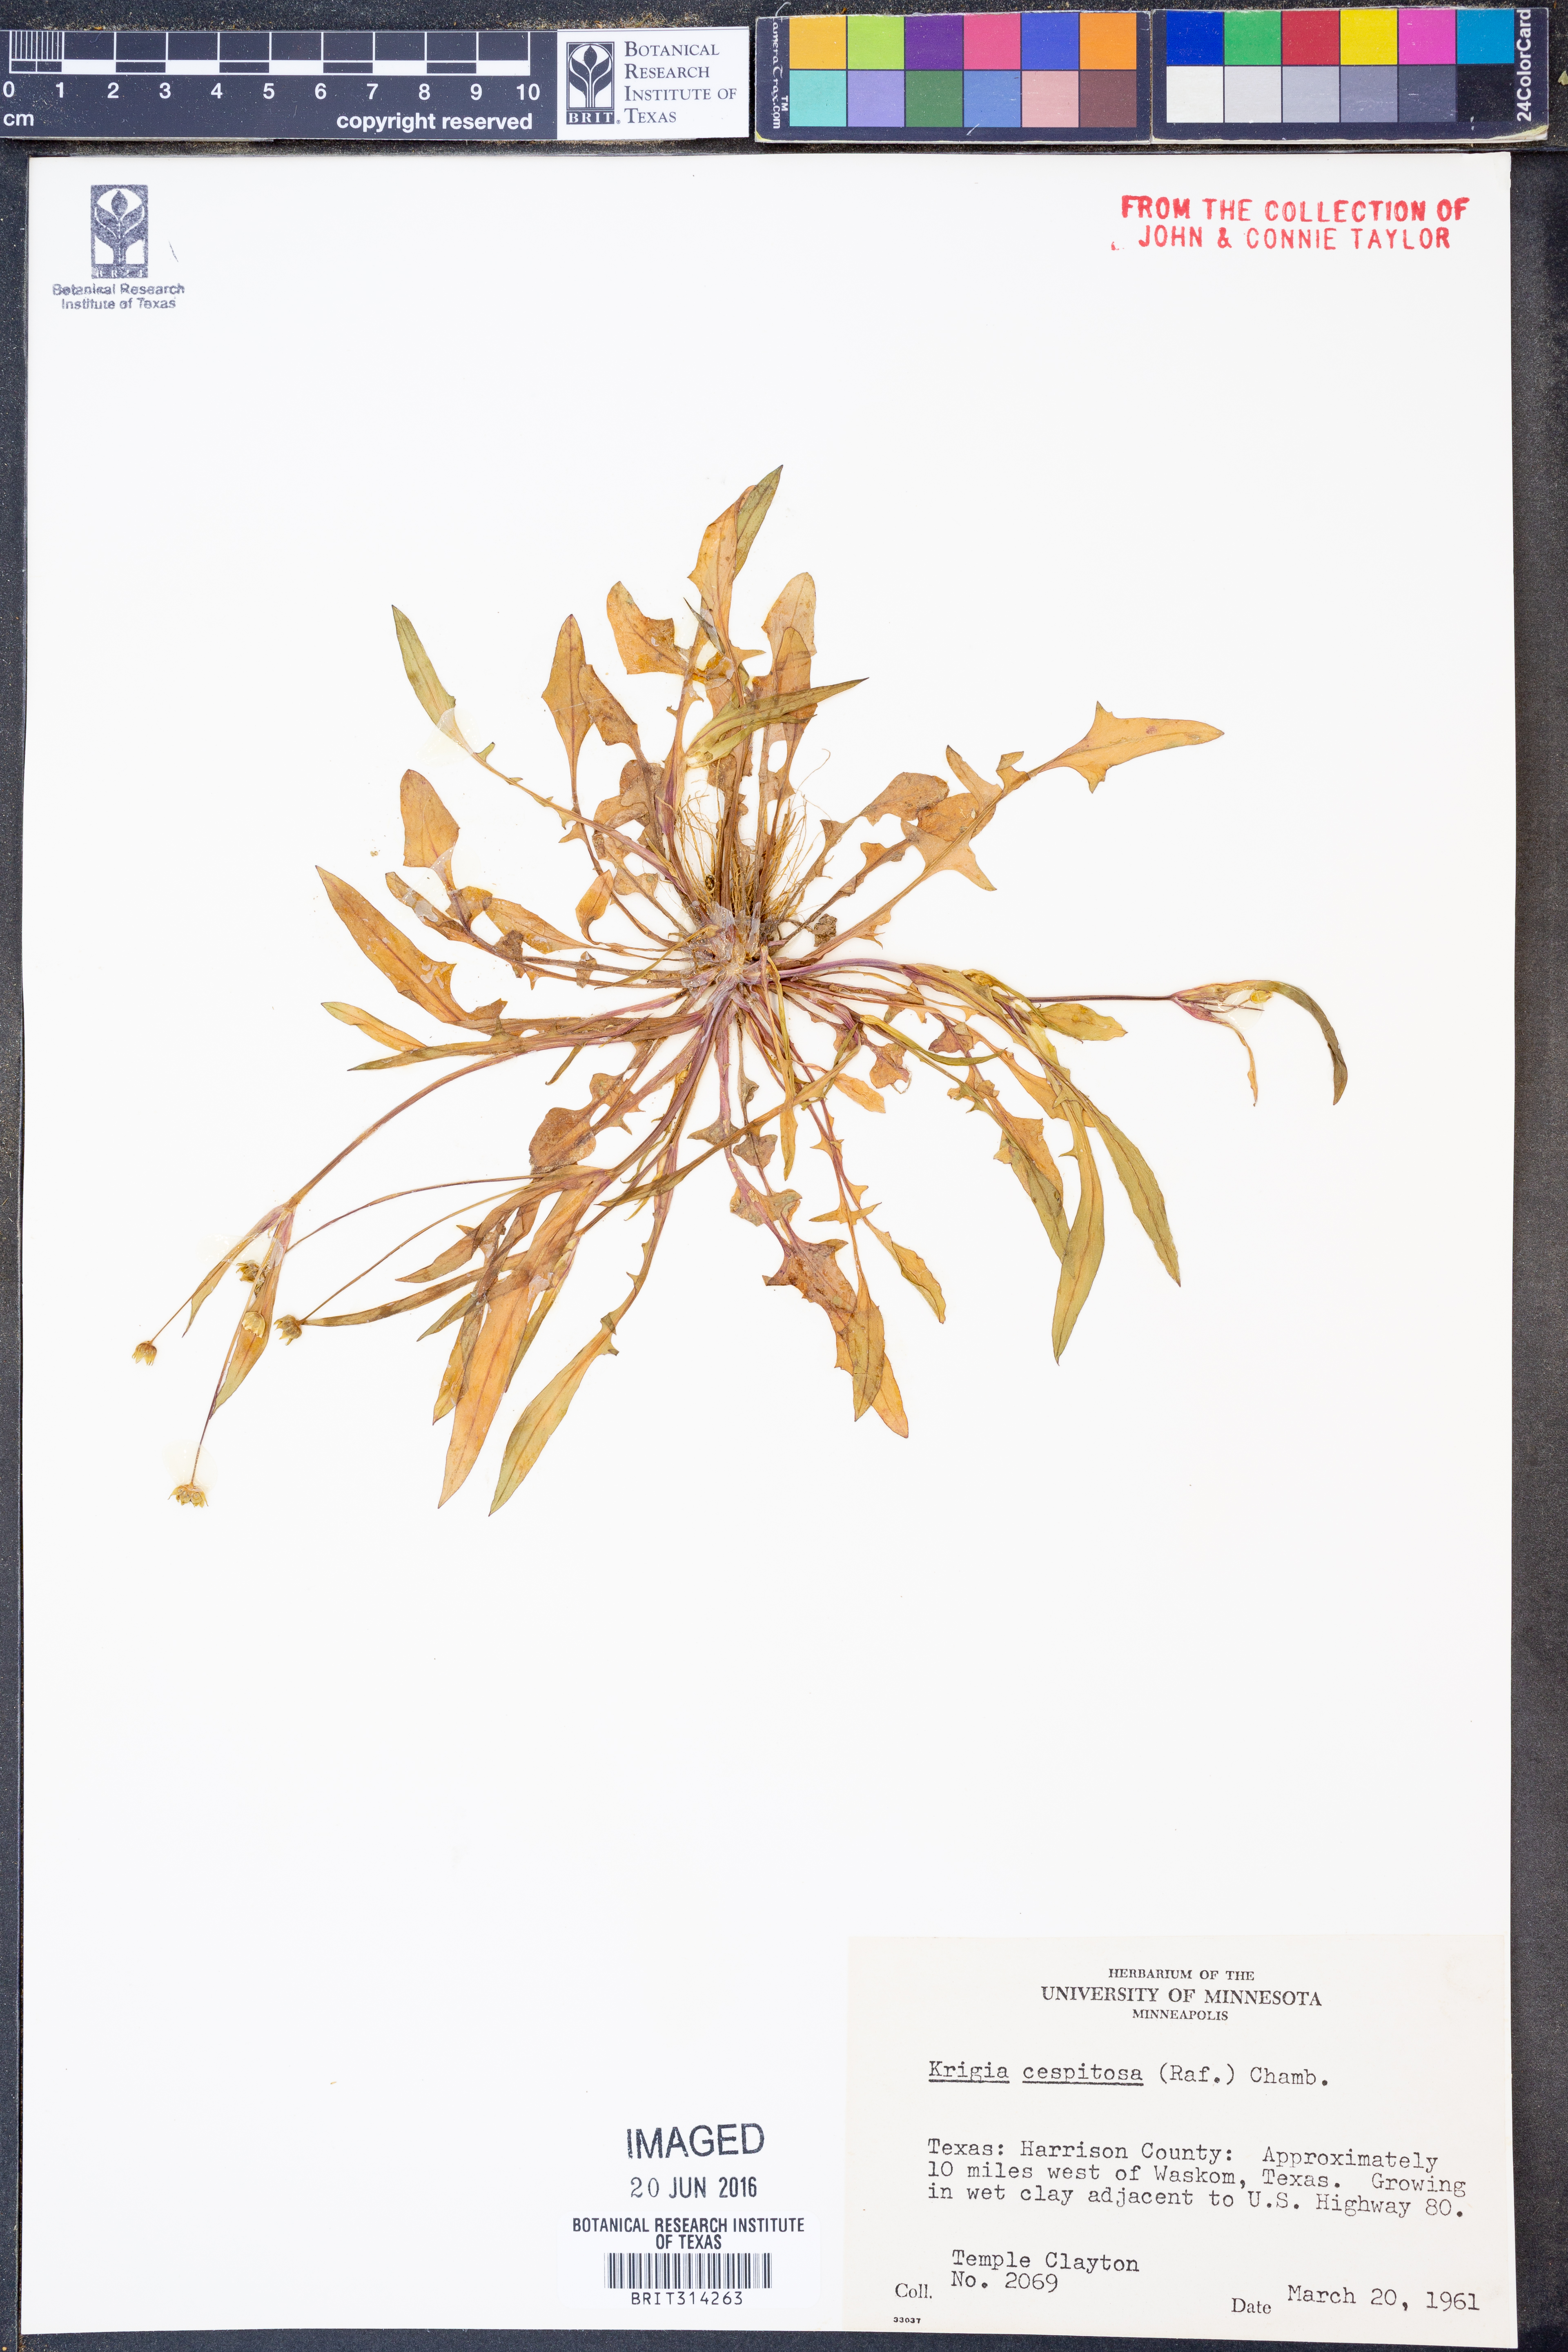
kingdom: Plantae
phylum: Tracheophyta
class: Magnoliopsida
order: Asterales
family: Asteraceae
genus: Krigia
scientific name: Krigia cespitosa
